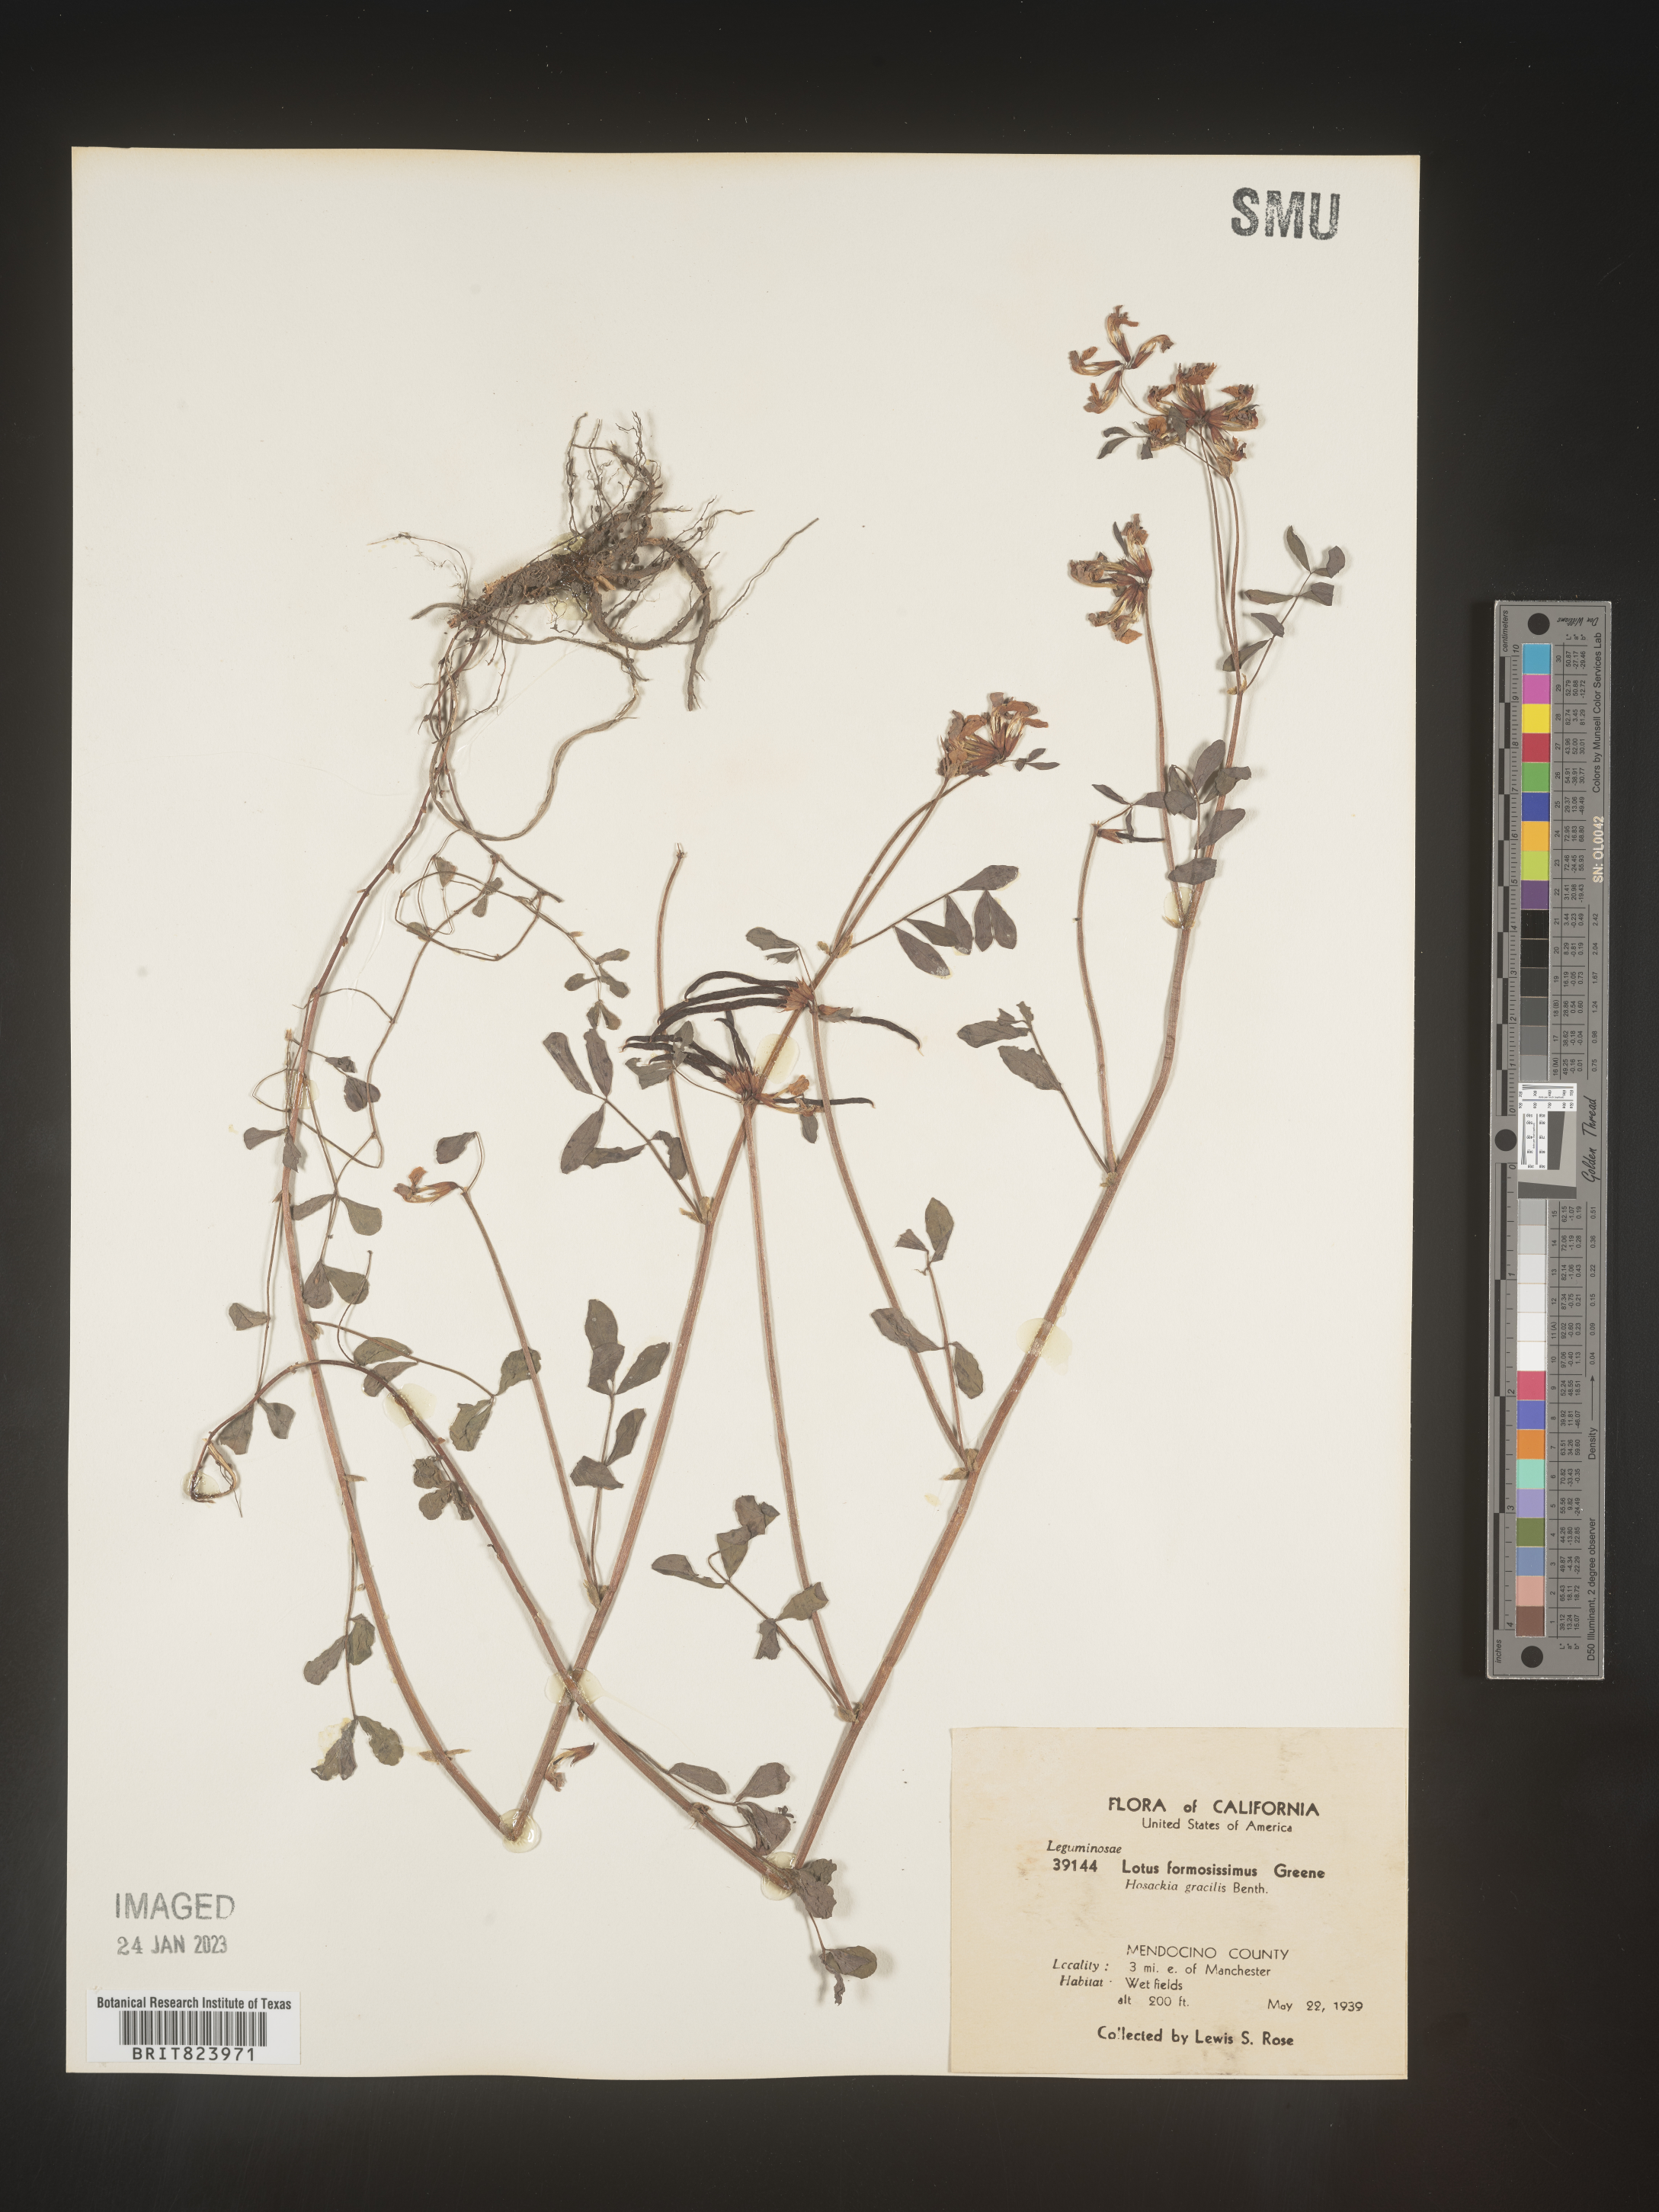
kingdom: Plantae
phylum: Tracheophyta
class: Magnoliopsida
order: Fabales
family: Fabaceae
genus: Lotus
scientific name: Lotus
